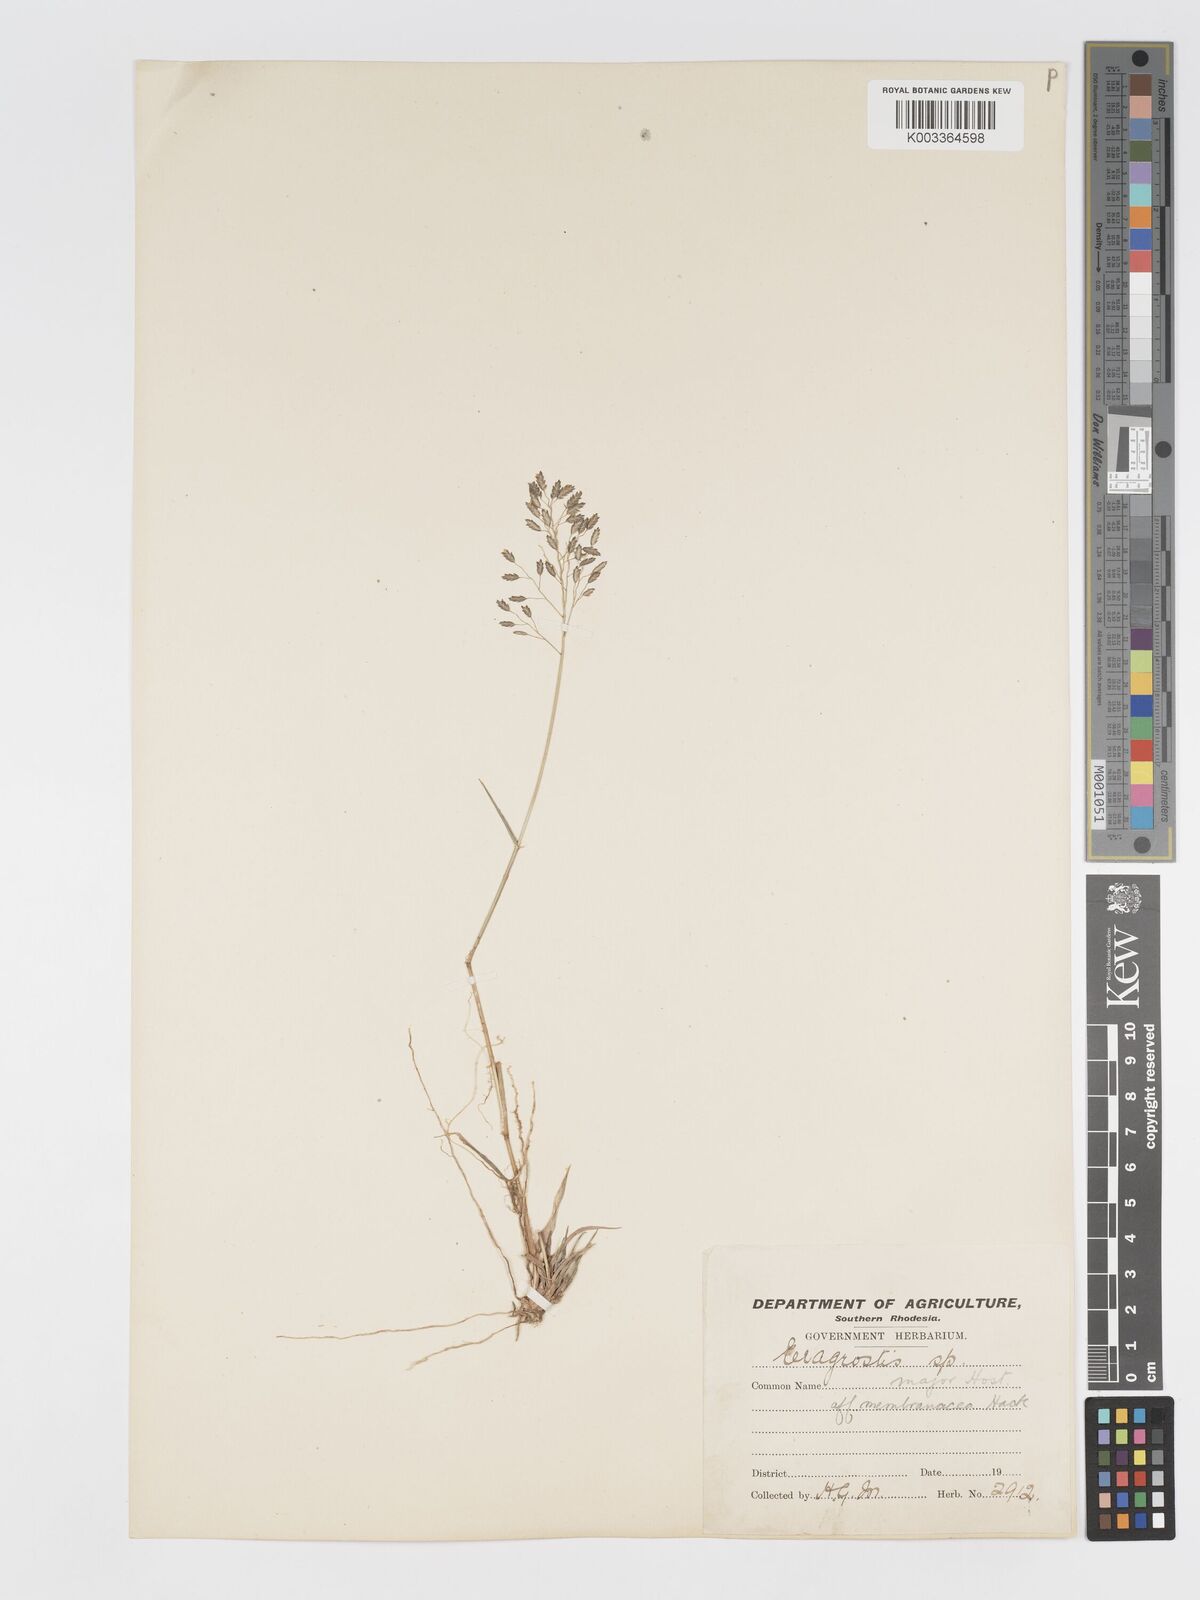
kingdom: Plantae
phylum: Tracheophyta
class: Liliopsida
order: Poales
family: Poaceae
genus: Eragrostis
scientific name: Eragrostis patentipilosa
